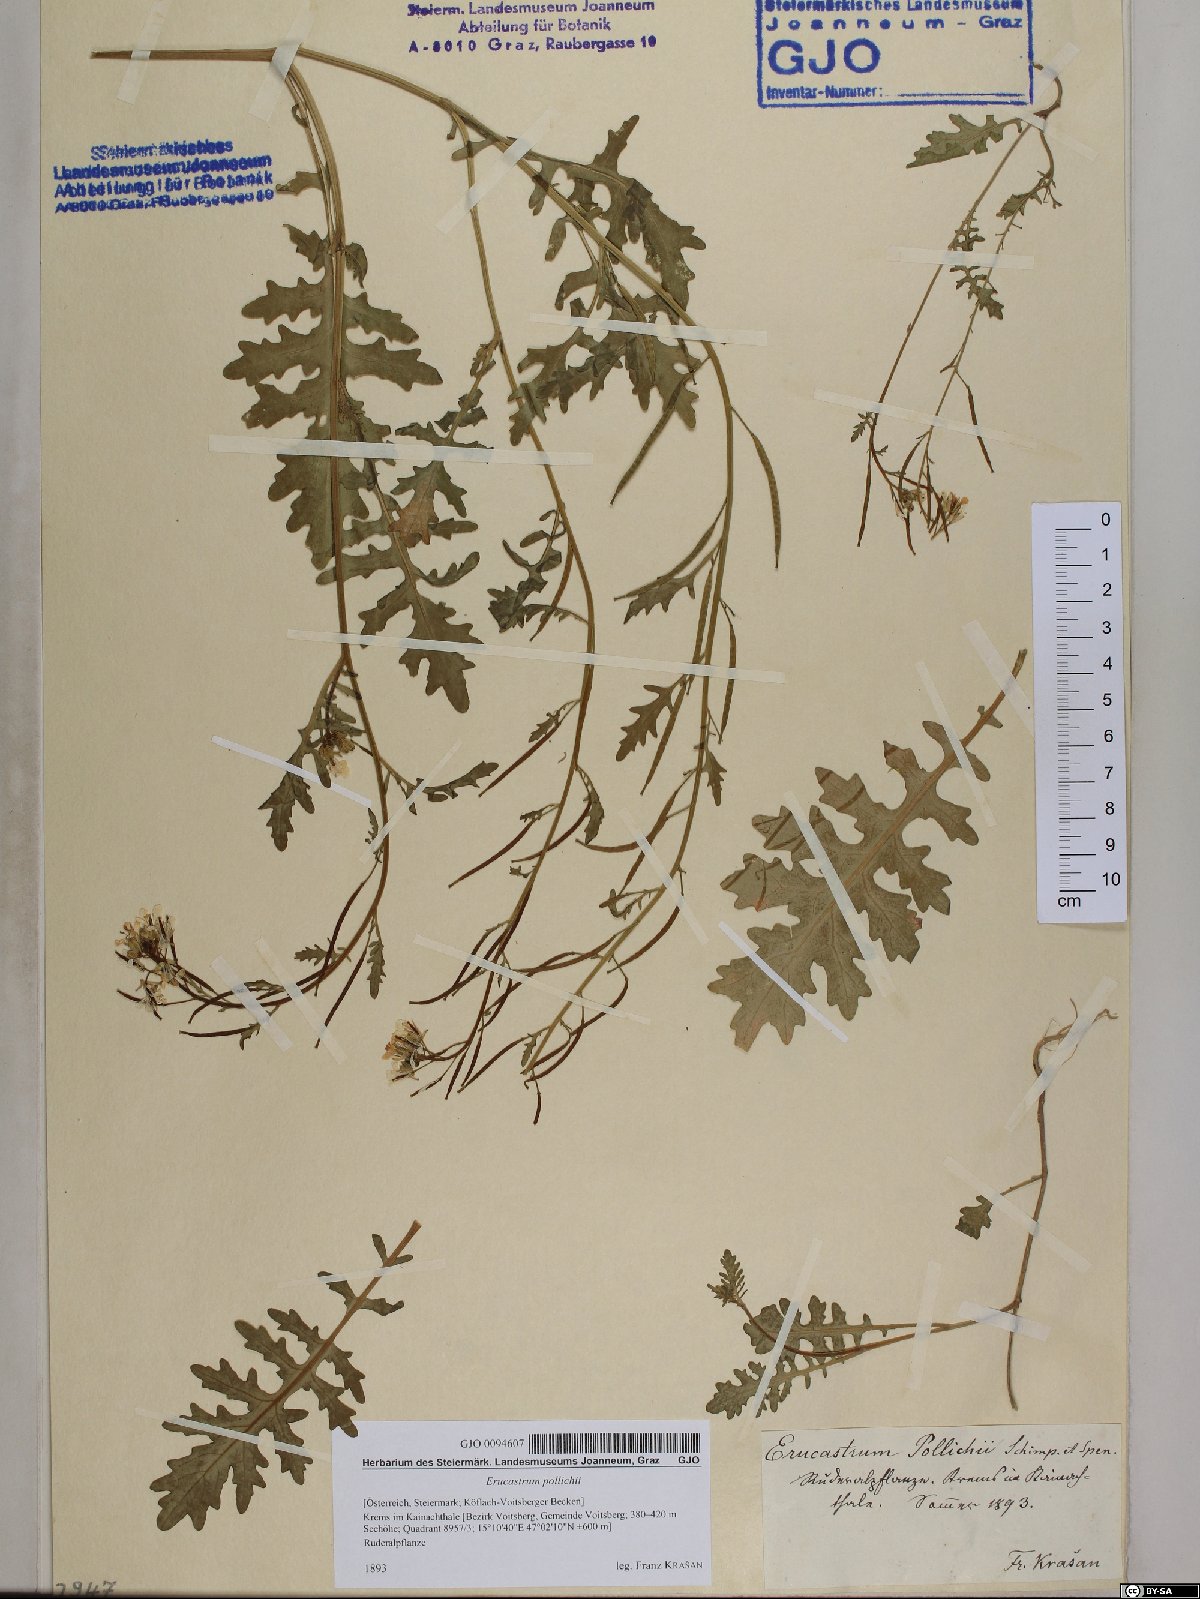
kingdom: Plantae
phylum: Tracheophyta
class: Magnoliopsida
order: Brassicales
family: Brassicaceae
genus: Erucastrum
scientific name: Erucastrum gallicum
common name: Hairy rocket
